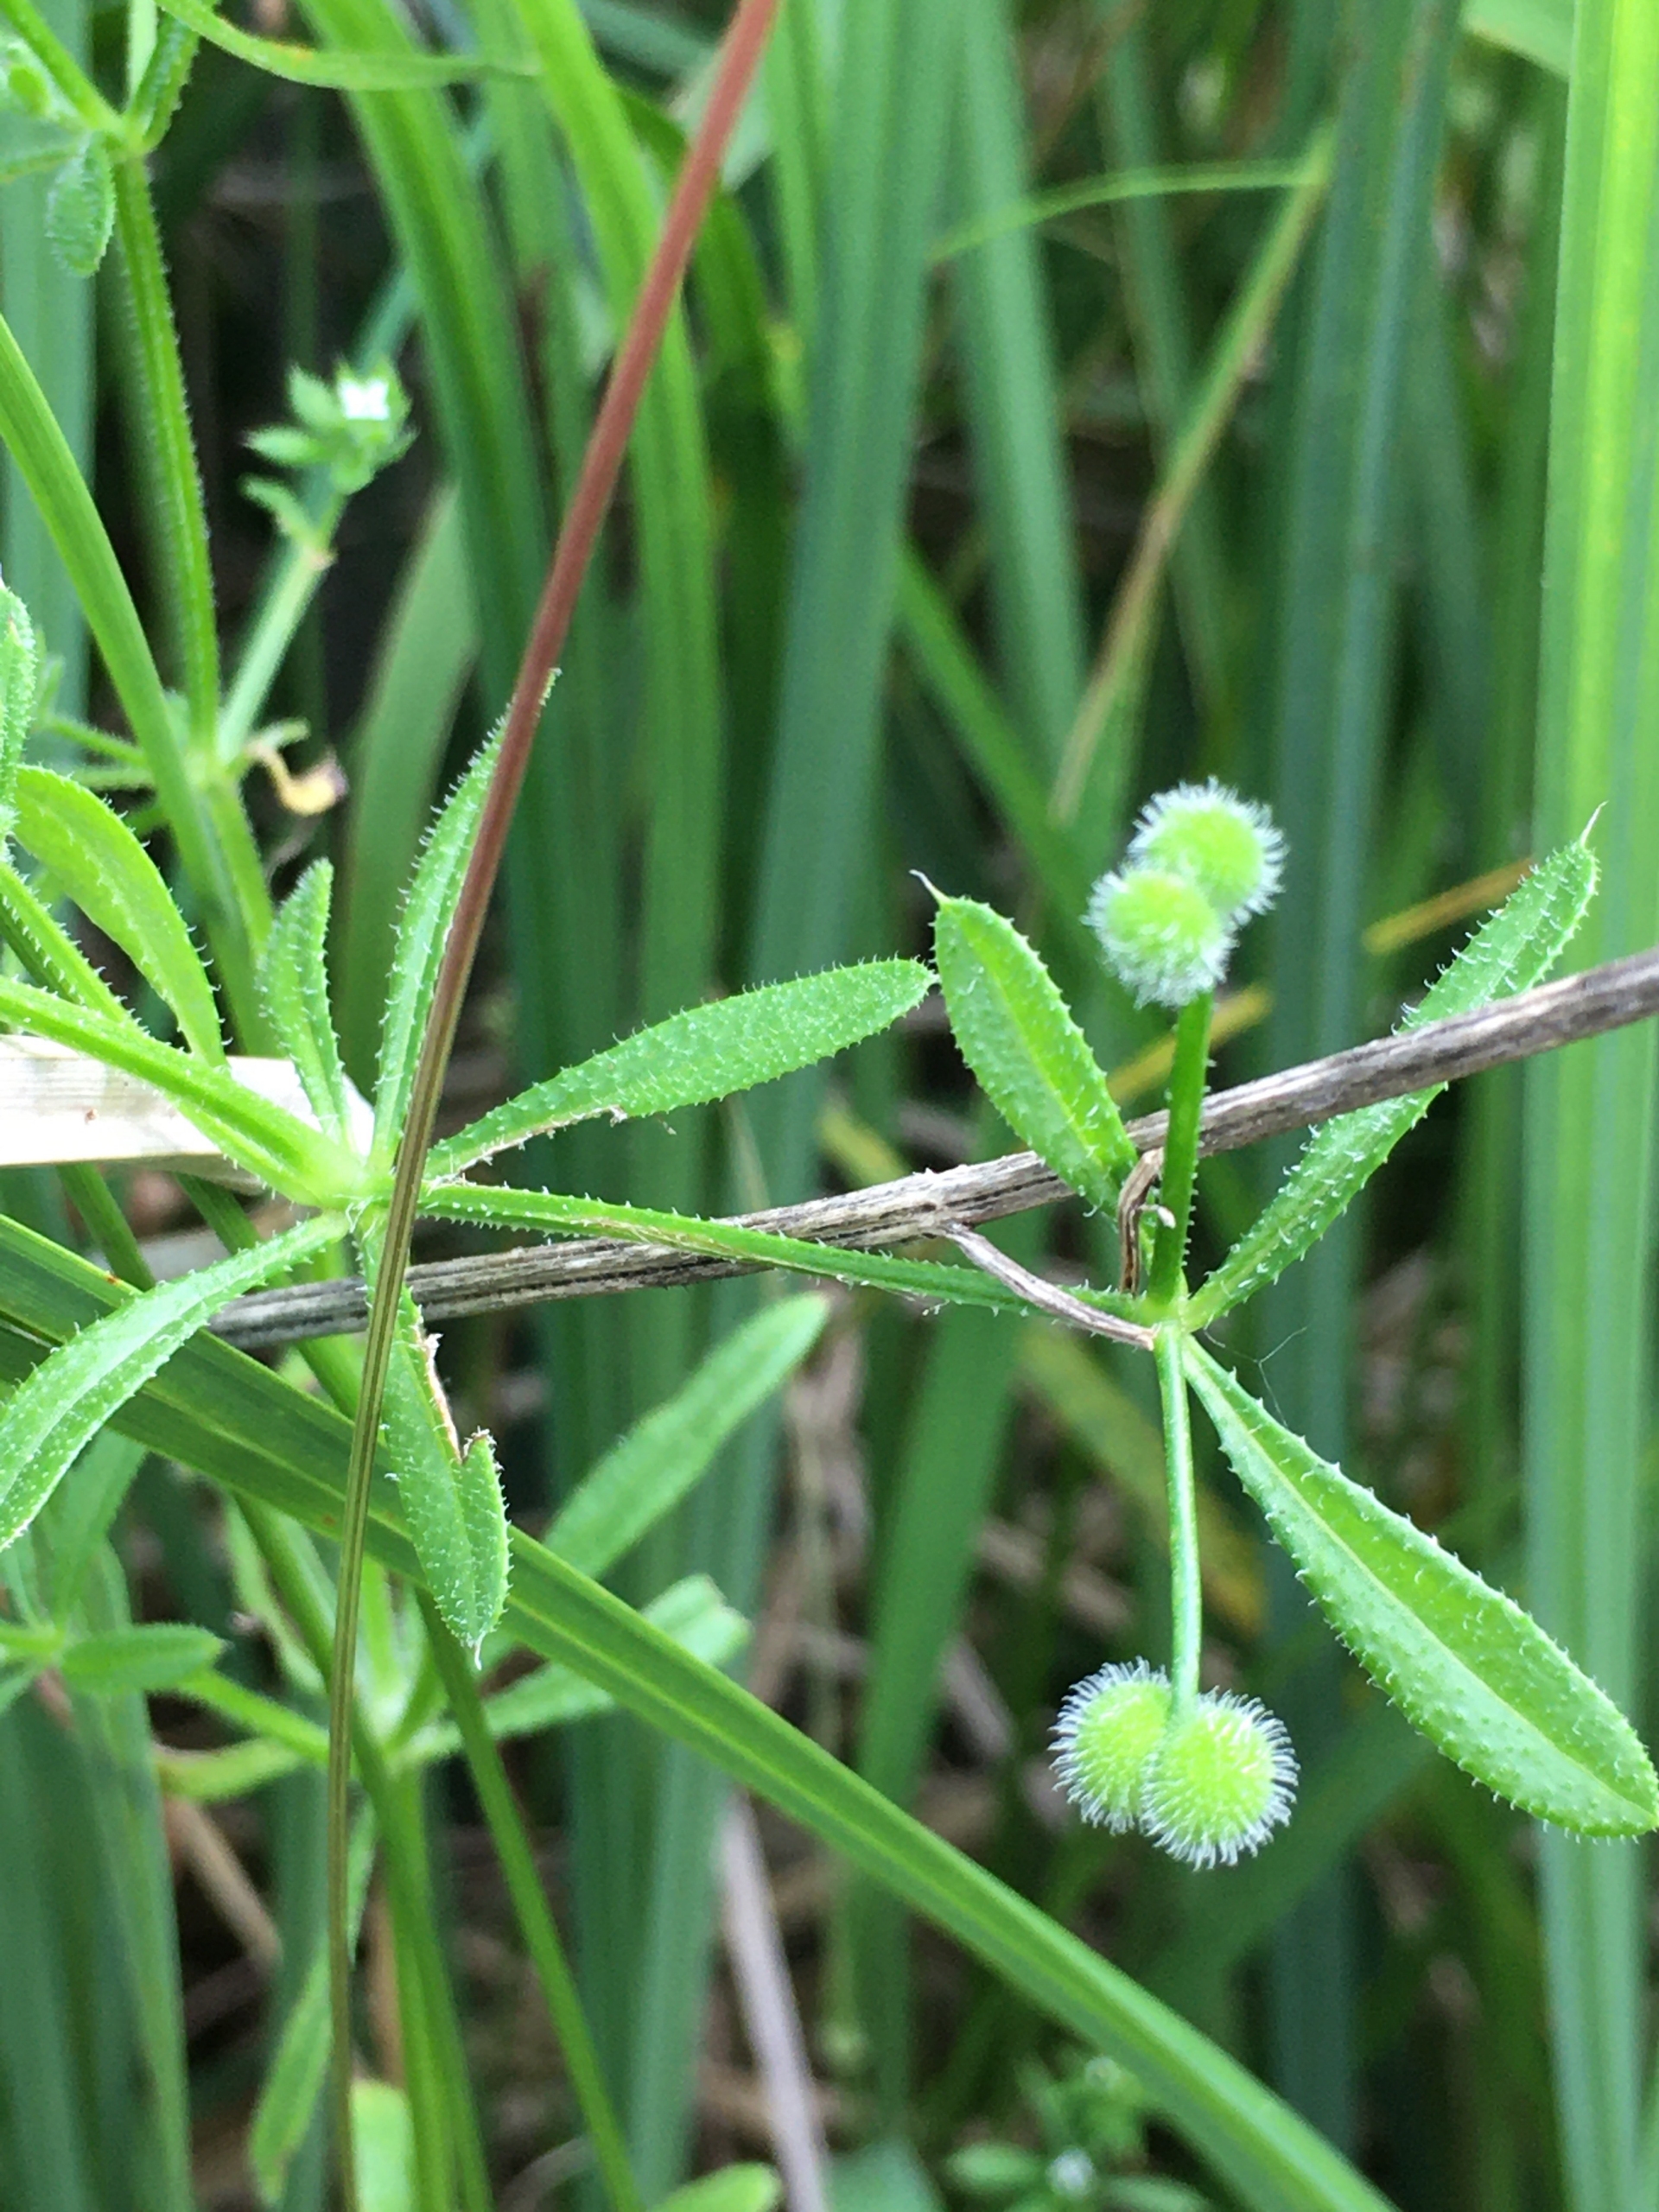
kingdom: Plantae
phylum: Tracheophyta
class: Magnoliopsida
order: Gentianales
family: Rubiaceae
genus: Galium
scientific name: Galium aparine
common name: Burre-snerre
